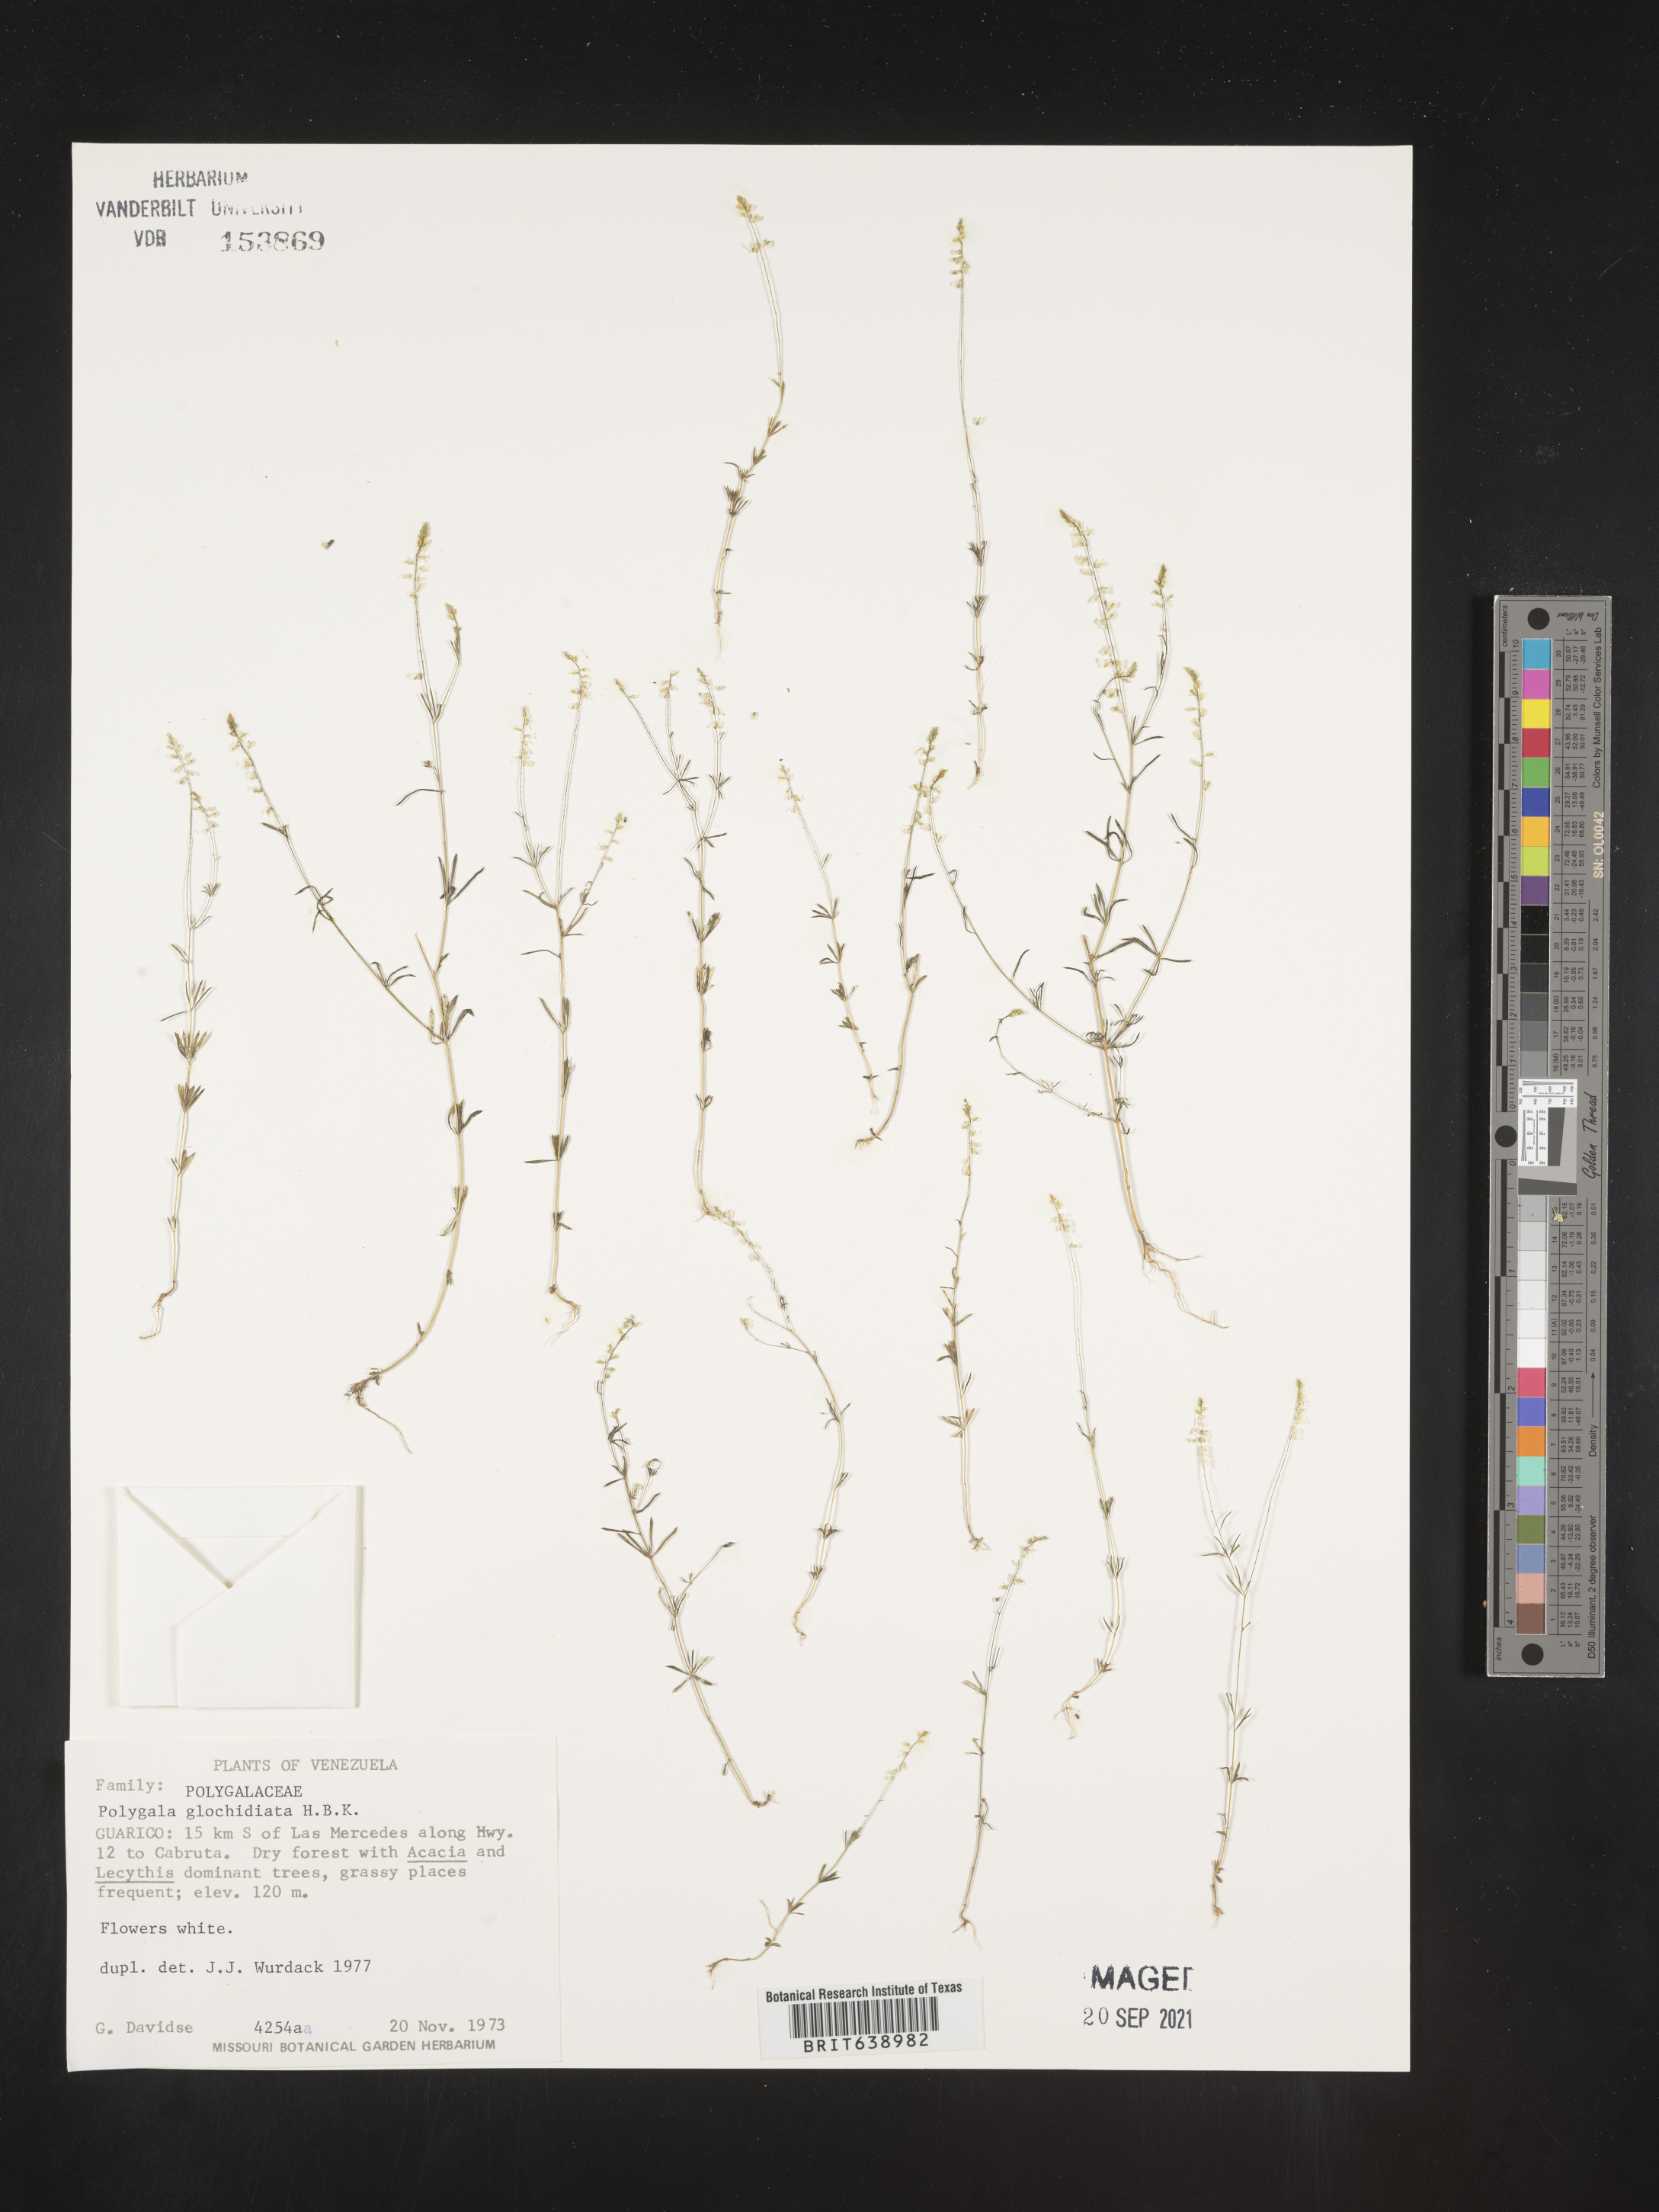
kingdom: Plantae
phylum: Tracheophyta
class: Magnoliopsida
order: Fabales
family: Polygalaceae
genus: Polygala
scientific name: Polygala
